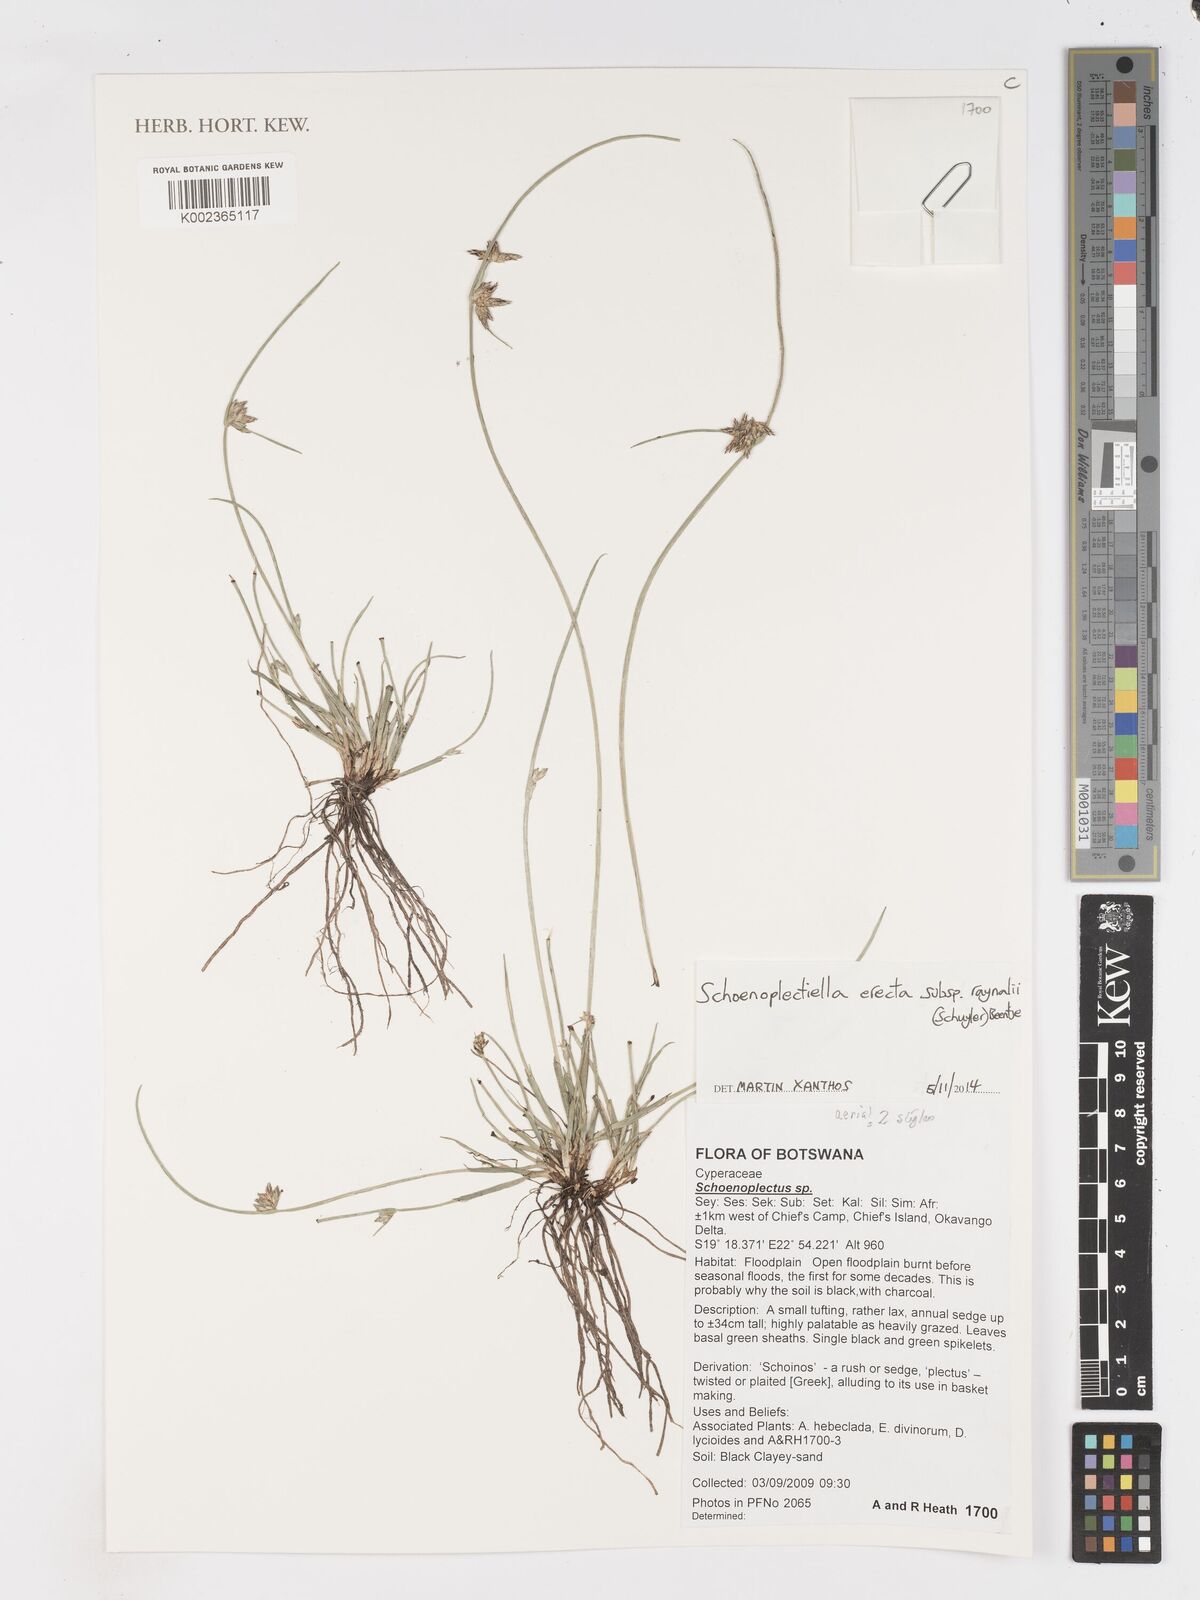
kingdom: Plantae
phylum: Tracheophyta
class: Liliopsida
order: Poales
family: Cyperaceae
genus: Schoenoplectiella
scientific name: Schoenoplectiella erecta
